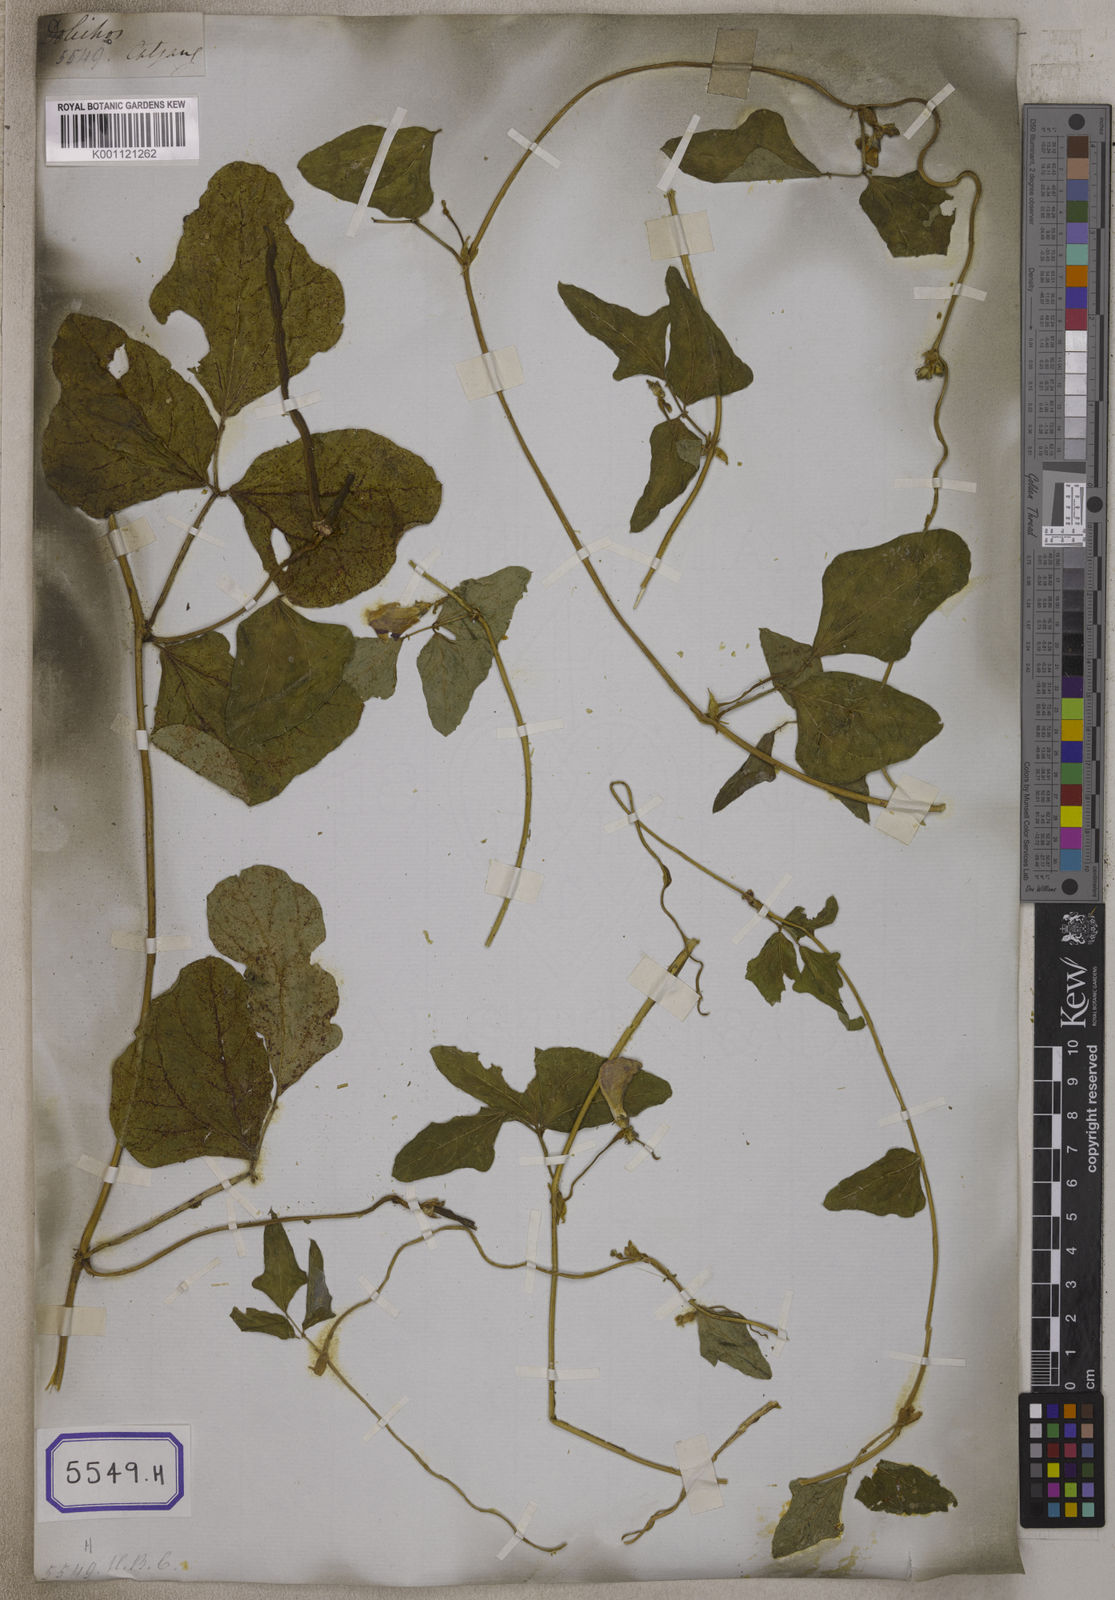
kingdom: Plantae
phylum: Tracheophyta
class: Magnoliopsida
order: Fabales
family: Fabaceae
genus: Vigna
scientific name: Vigna unguiculata
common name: Cowpea
